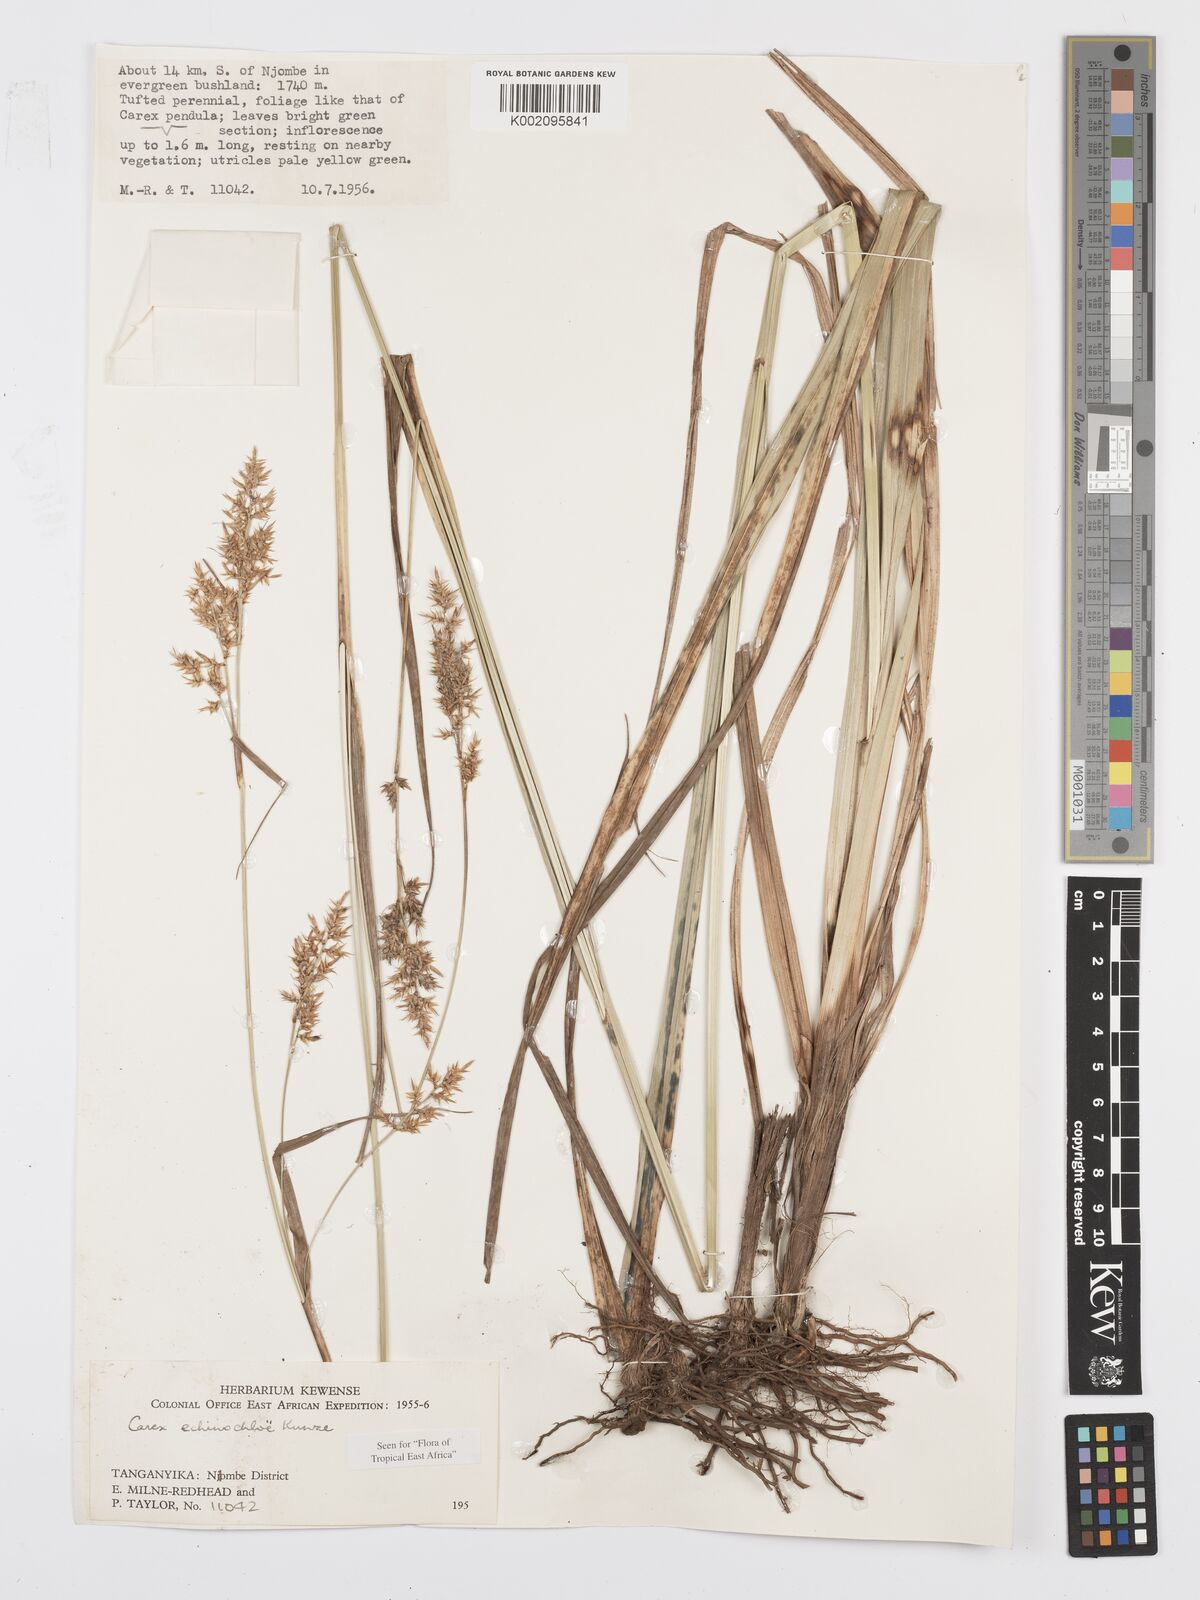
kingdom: Plantae
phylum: Tracheophyta
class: Liliopsida
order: Poales
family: Cyperaceae
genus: Carex
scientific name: Carex echinochloe
